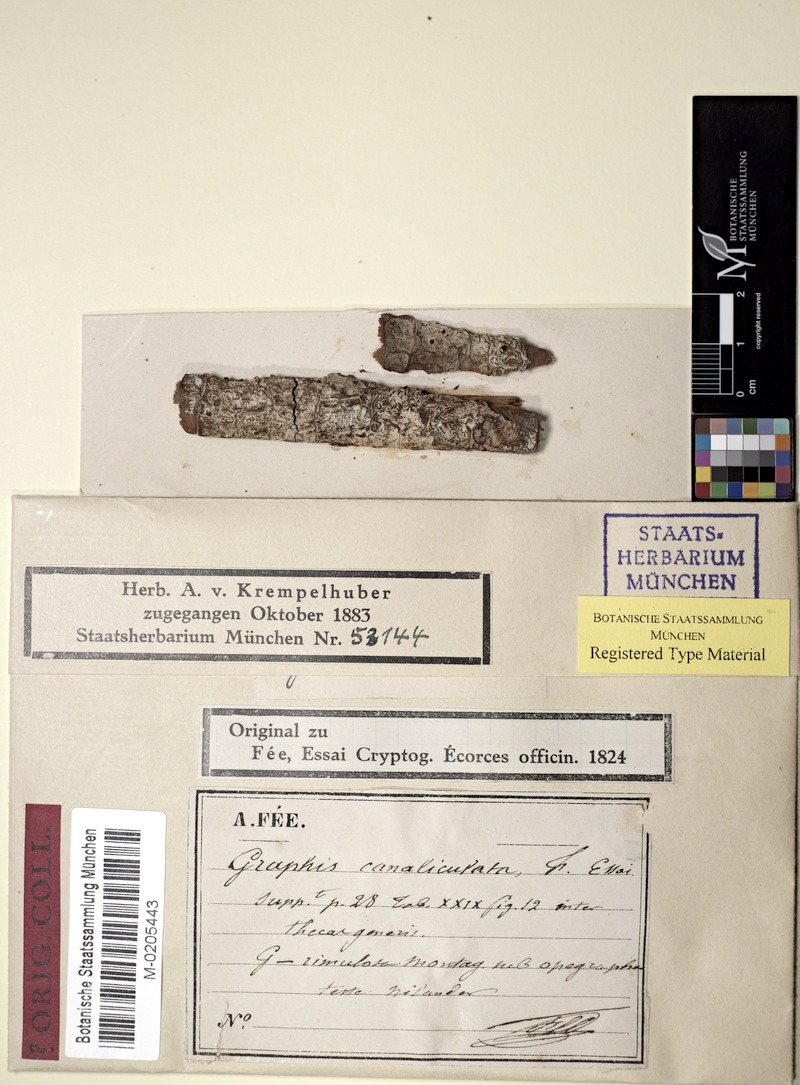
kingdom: Fungi
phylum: Ascomycota
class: Lecanoromycetes
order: Ostropales
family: Graphidaceae
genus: Graphina
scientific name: Graphina
